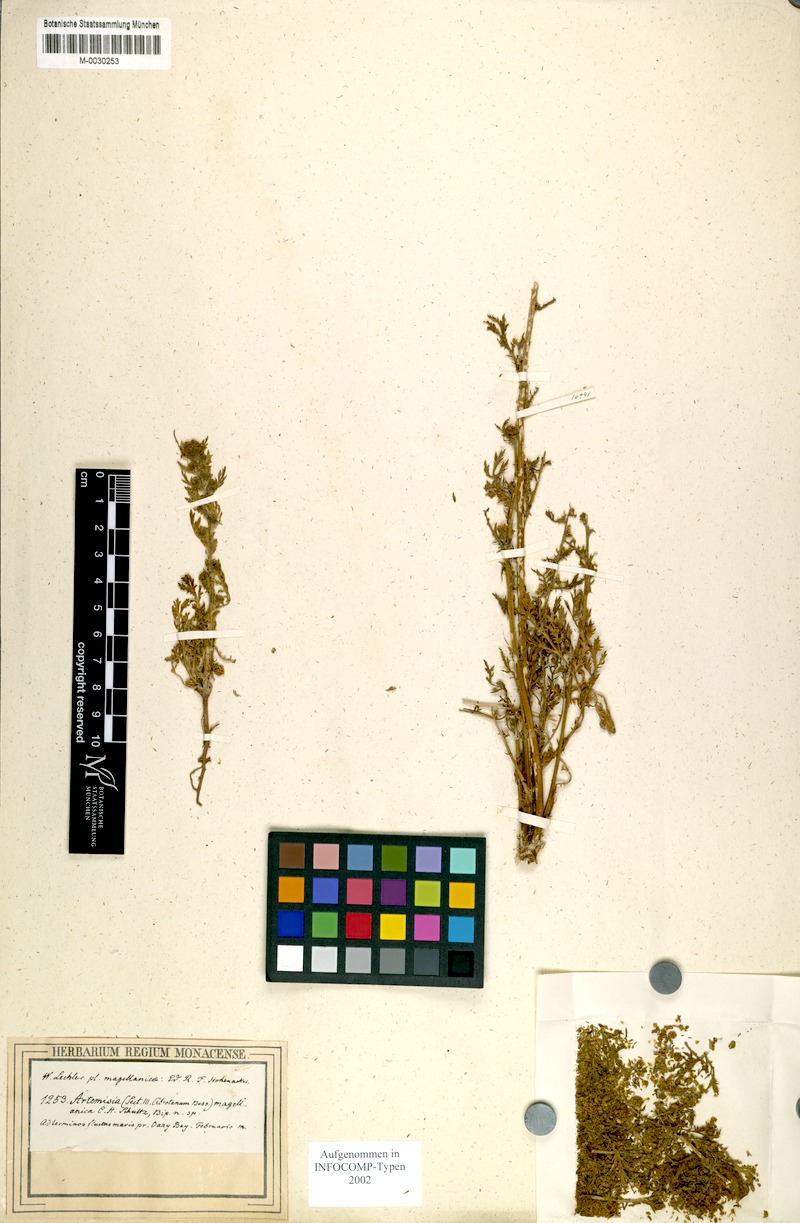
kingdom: Plantae
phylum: Tracheophyta
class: Magnoliopsida
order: Asterales
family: Asteraceae
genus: Artemisia
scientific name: Artemisia magellanica
